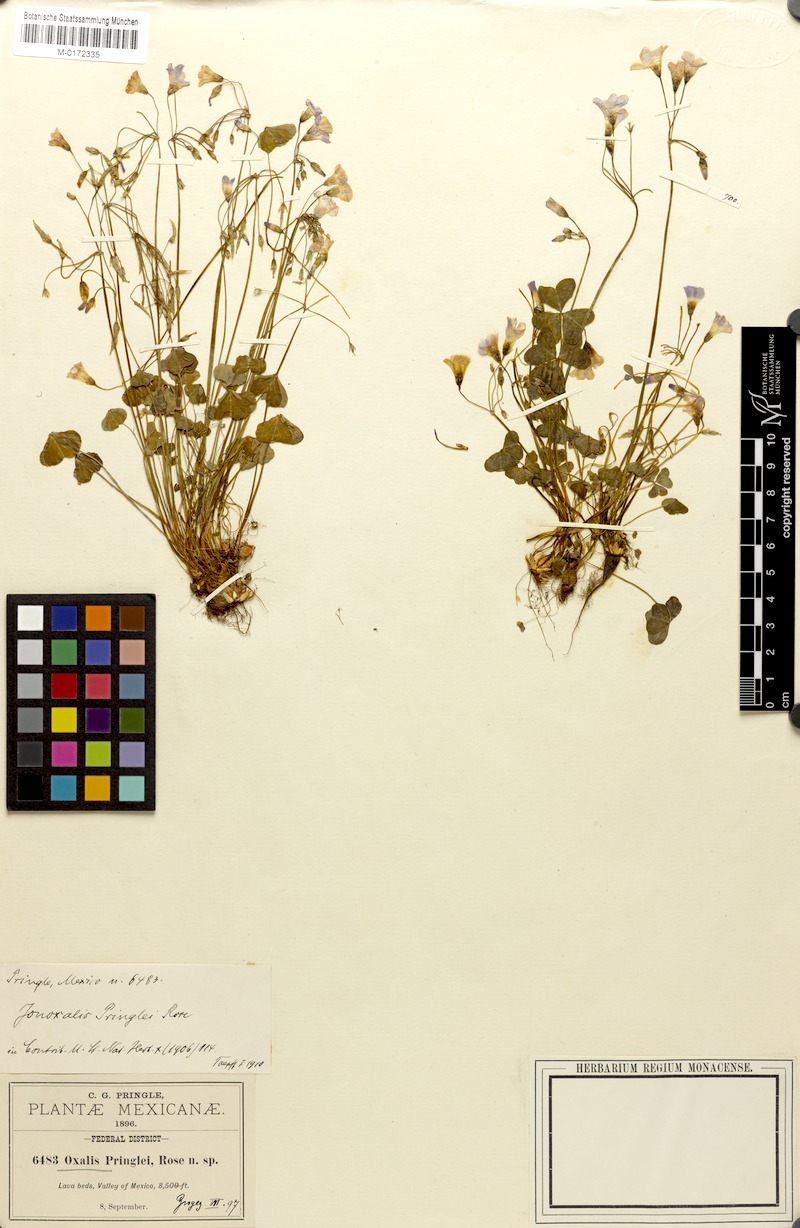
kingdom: Plantae
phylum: Tracheophyta
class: Magnoliopsida
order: Oxalidales
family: Oxalidaceae
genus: Oxalis
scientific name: Oxalis alpina
